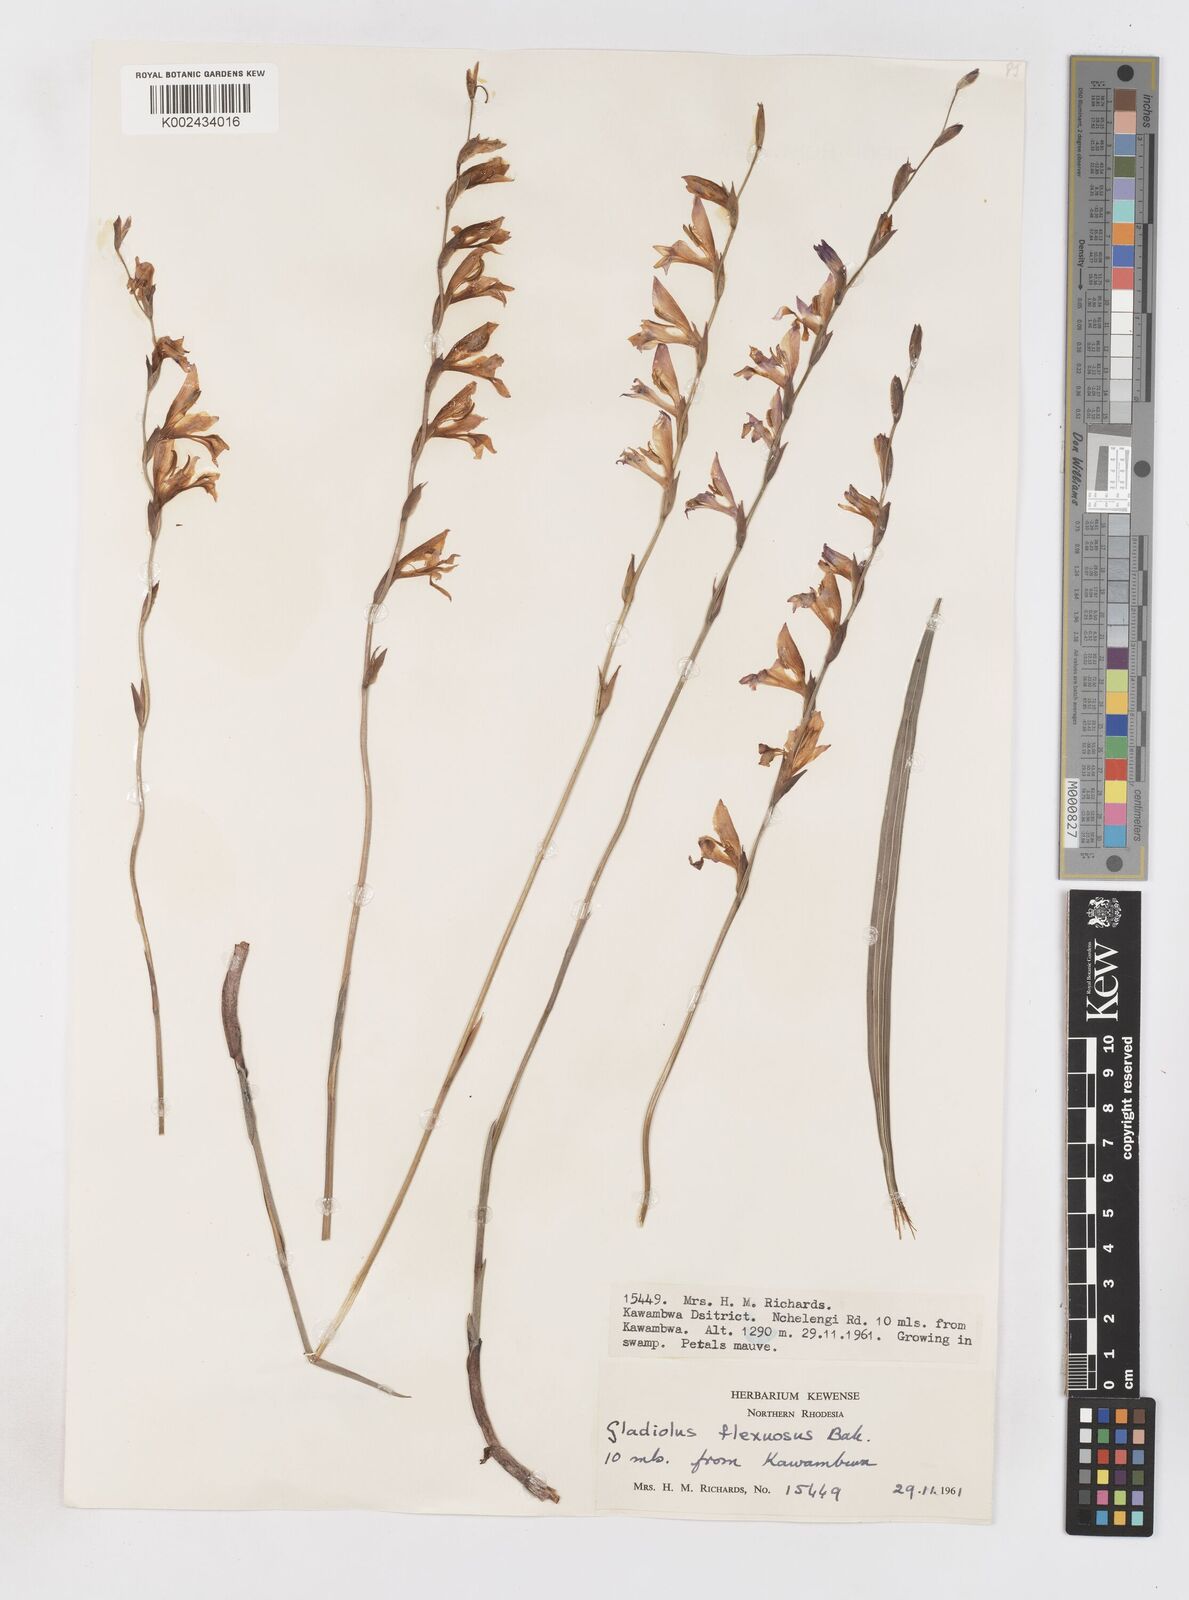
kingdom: Plantae
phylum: Tracheophyta
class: Liliopsida
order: Asparagales
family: Iridaceae
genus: Gladiolus
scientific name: Gladiolus atropurpureus
